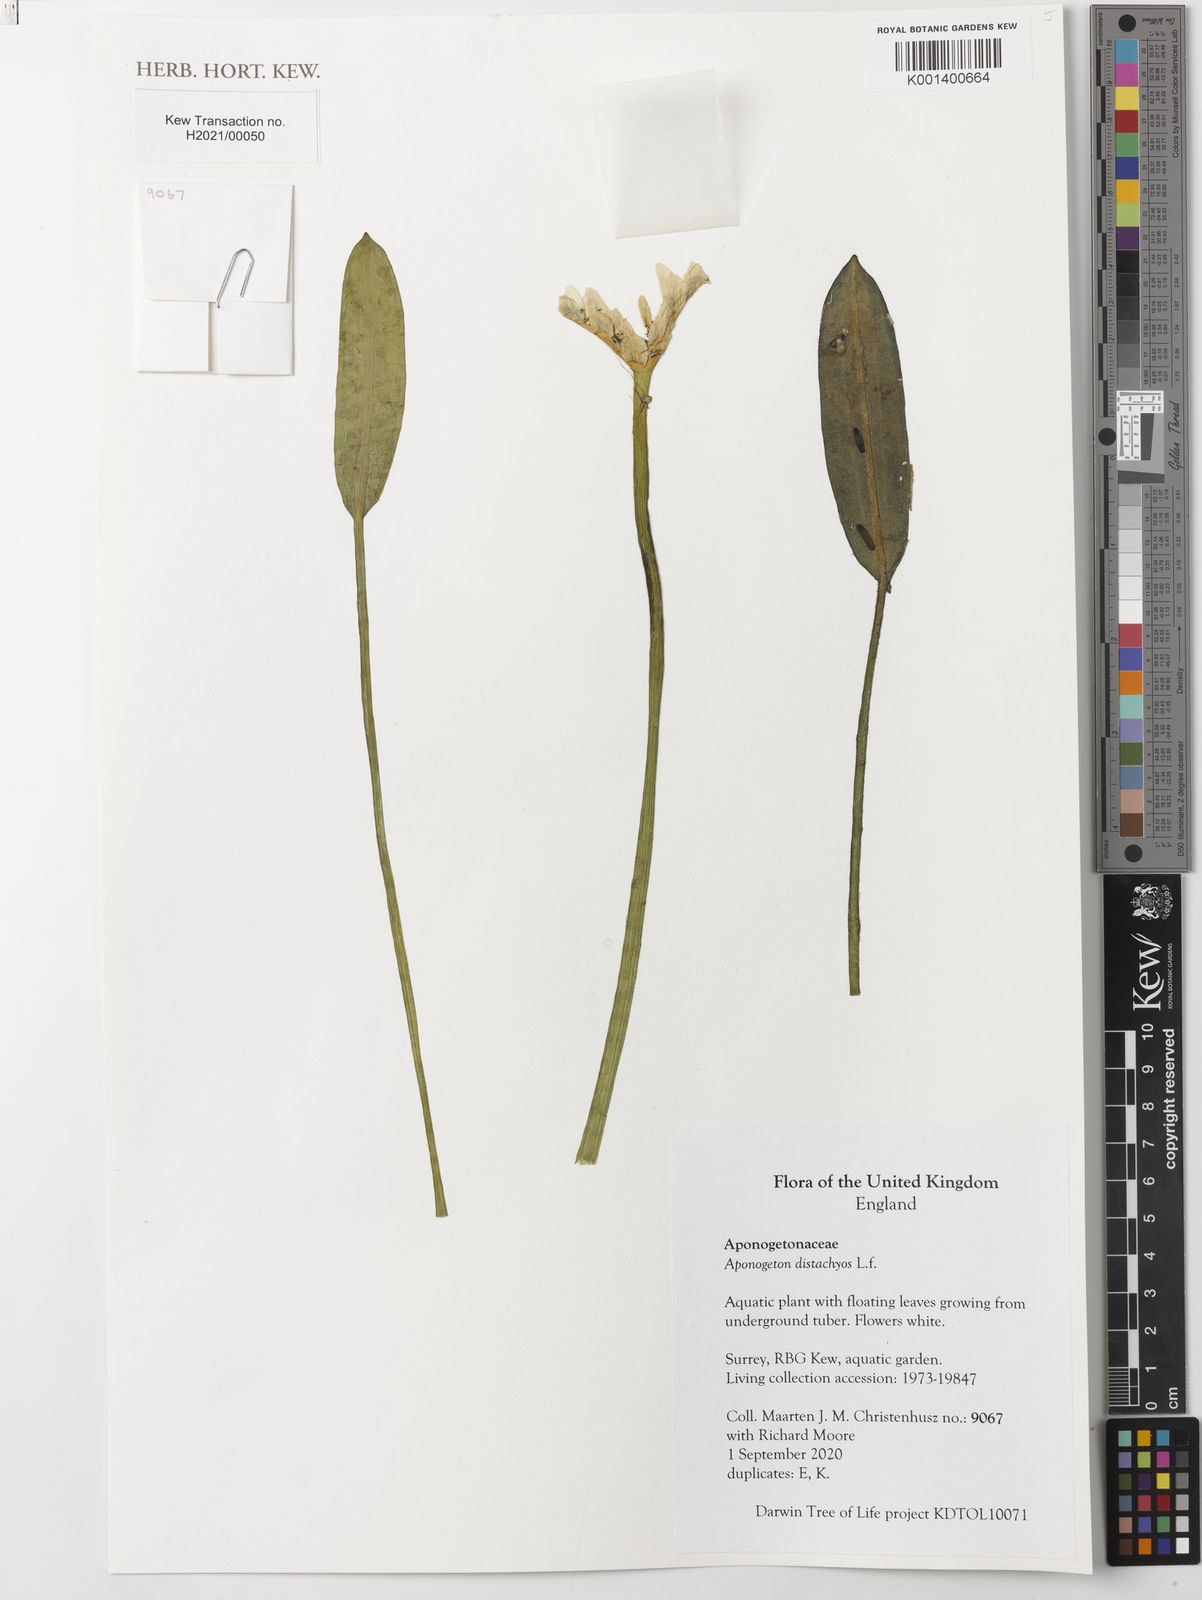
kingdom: Plantae
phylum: Tracheophyta
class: Liliopsida
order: Alismatales
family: Aponogetonaceae
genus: Aponogeton
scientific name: Aponogeton distachyos
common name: Cape-pondweed
